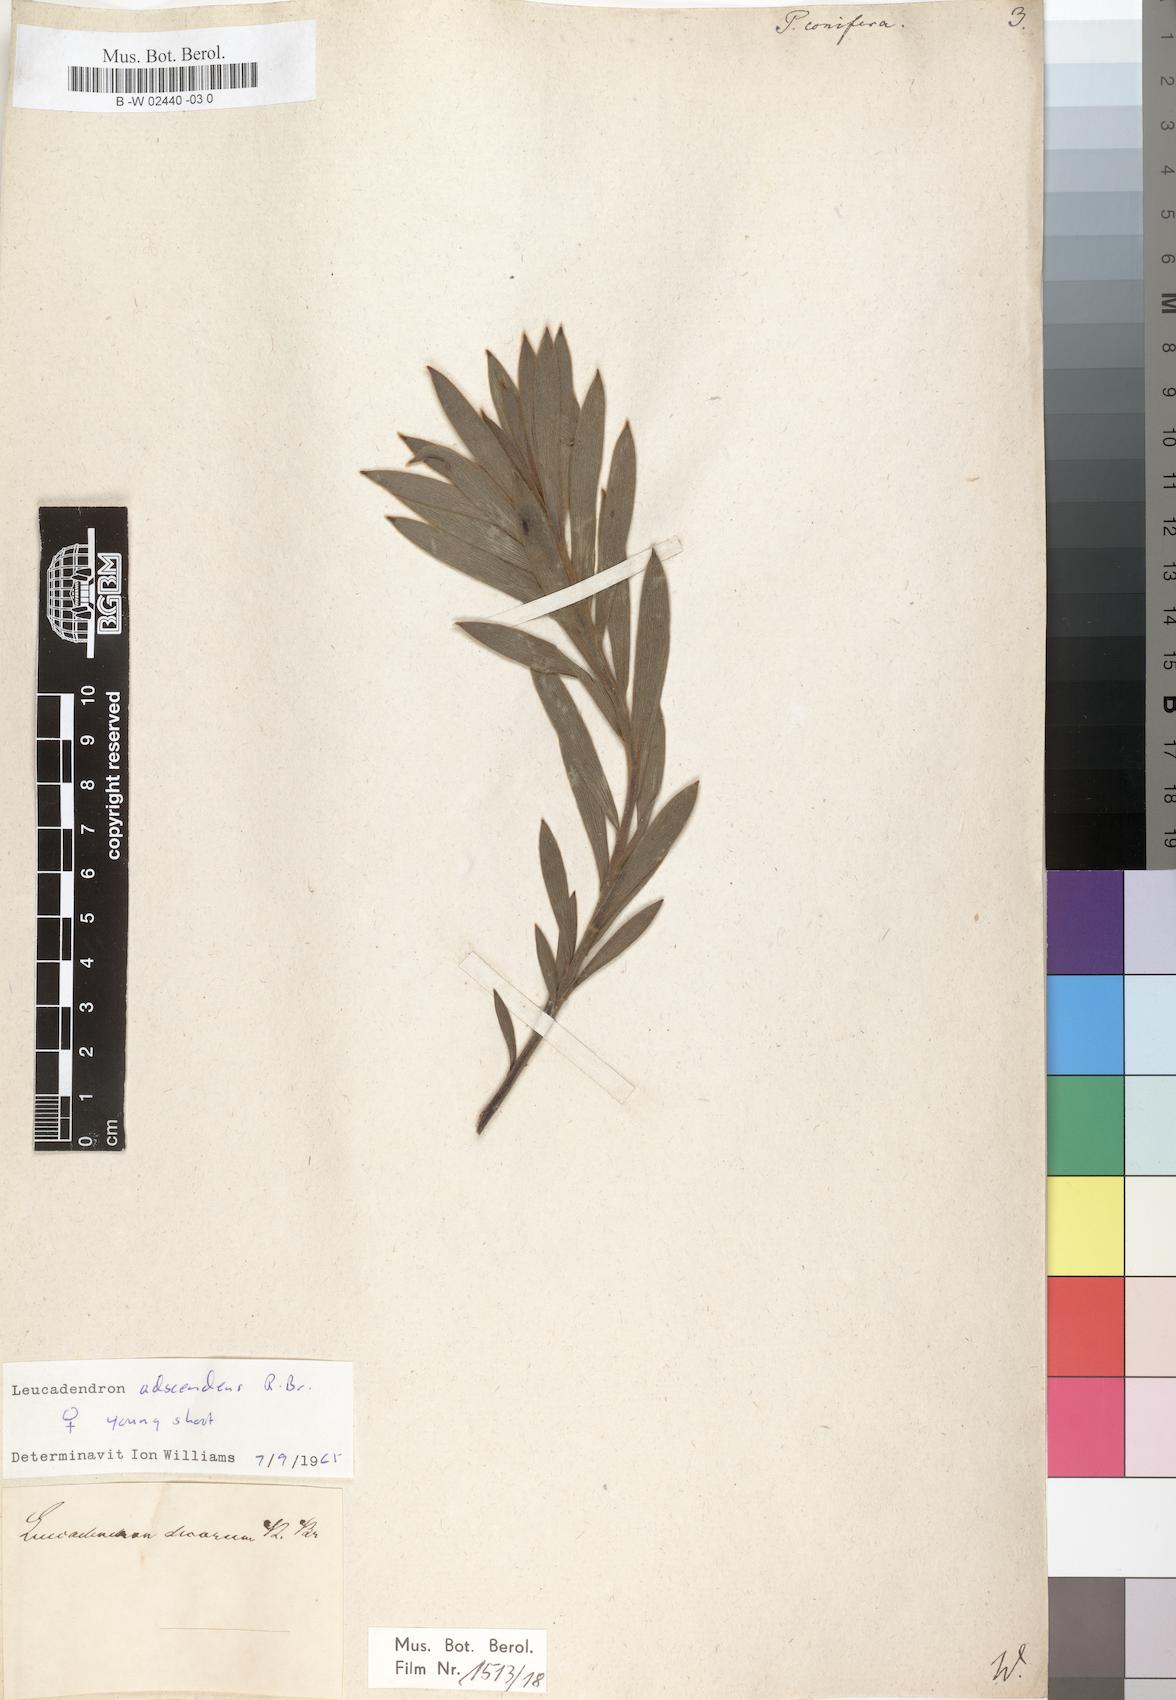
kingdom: Plantae
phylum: Tracheophyta
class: Magnoliopsida
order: Proteales
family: Proteaceae
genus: Leucadendron
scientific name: Leucadendron
